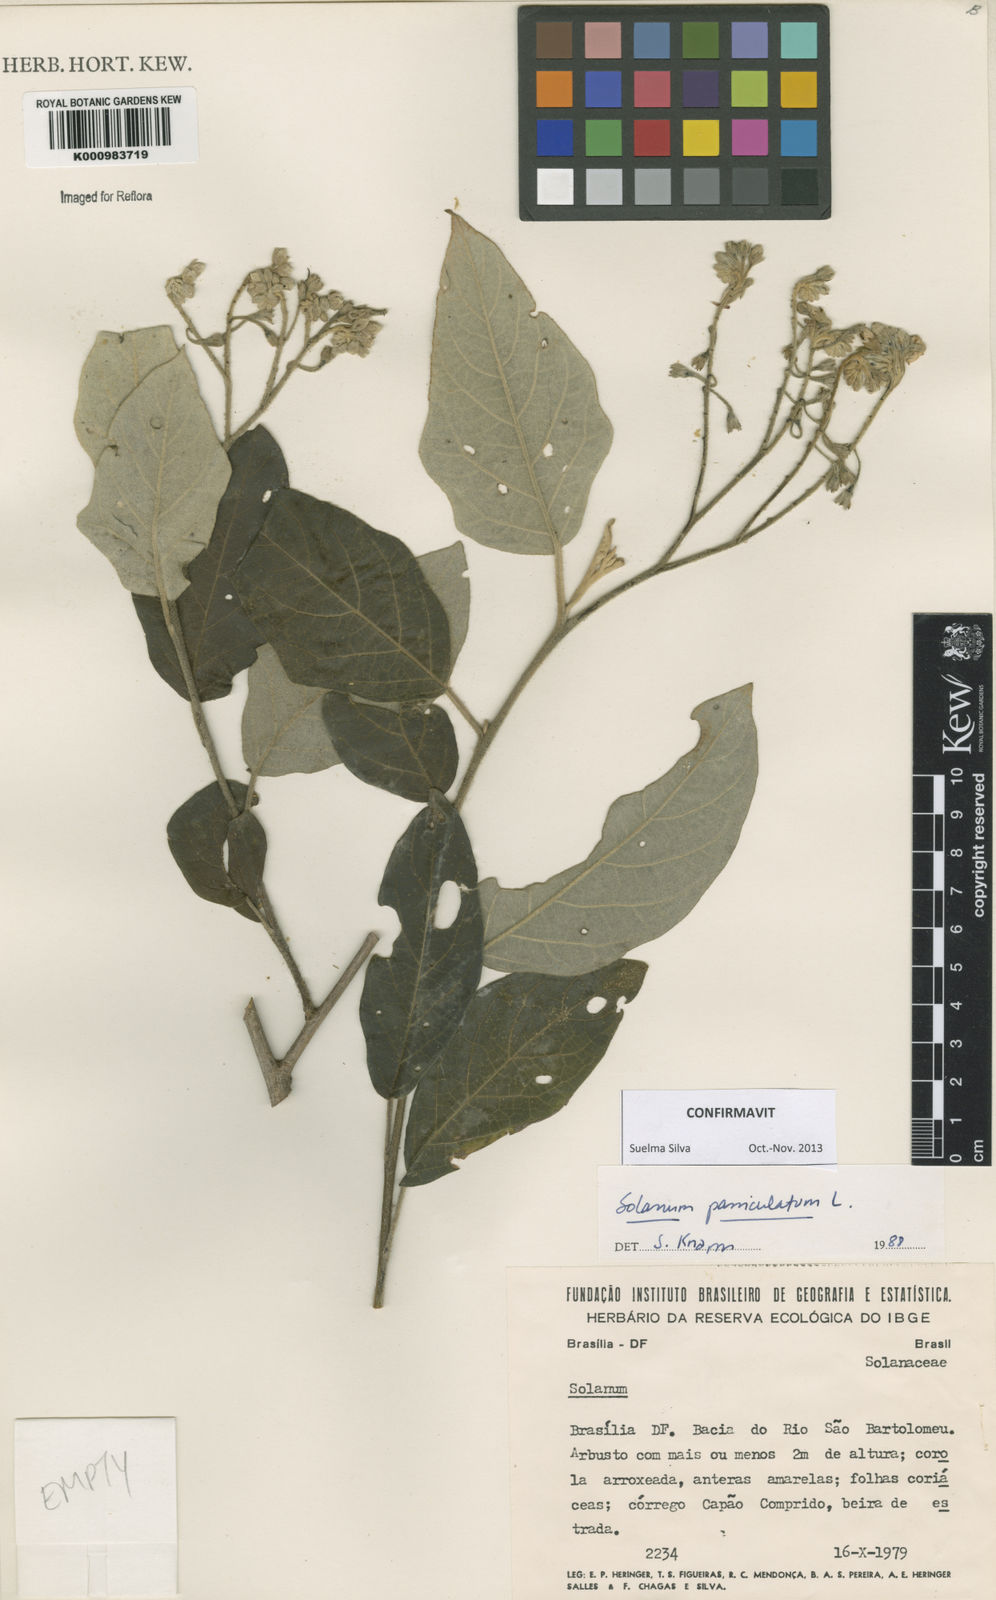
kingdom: Plantae
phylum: Tracheophyta
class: Magnoliopsida
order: Solanales
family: Solanaceae
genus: Solanum
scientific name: Solanum paniculatum
